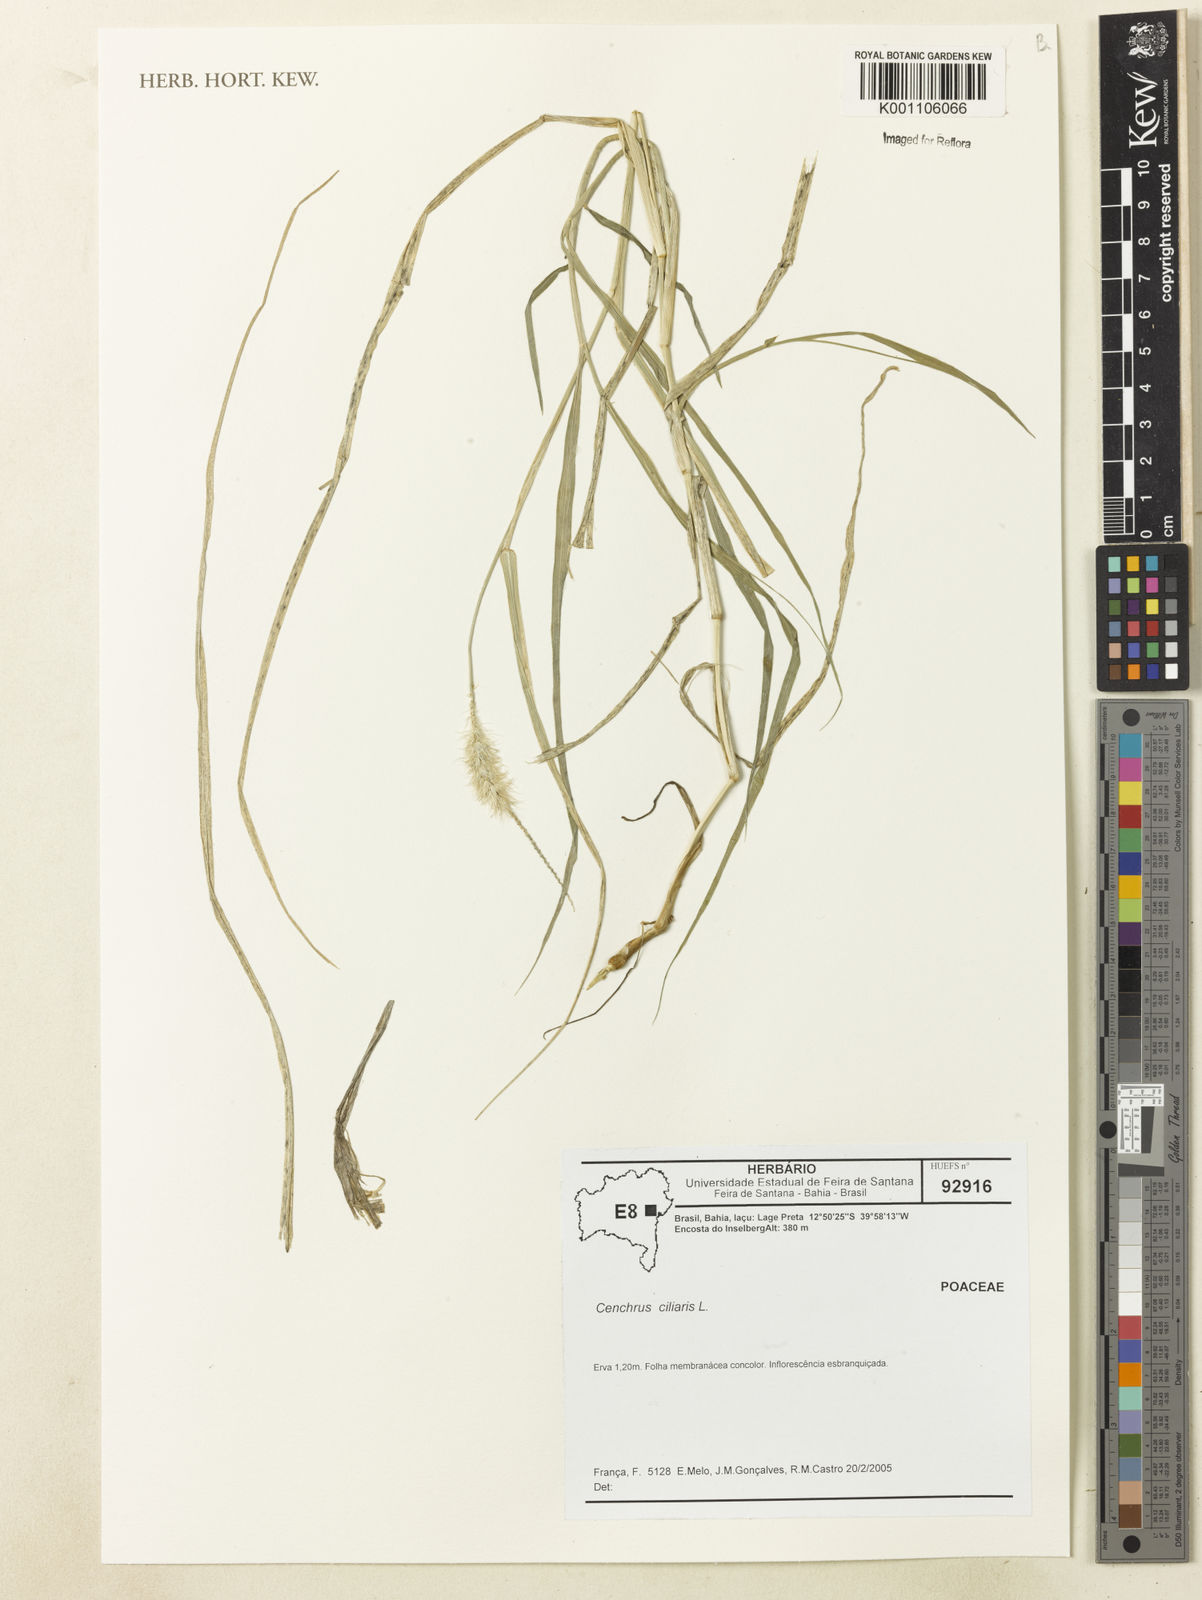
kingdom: Plantae
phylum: Tracheophyta
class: Liliopsida
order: Poales
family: Poaceae
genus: Cenchrus
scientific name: Cenchrus ciliaris
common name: Buffelgrass
